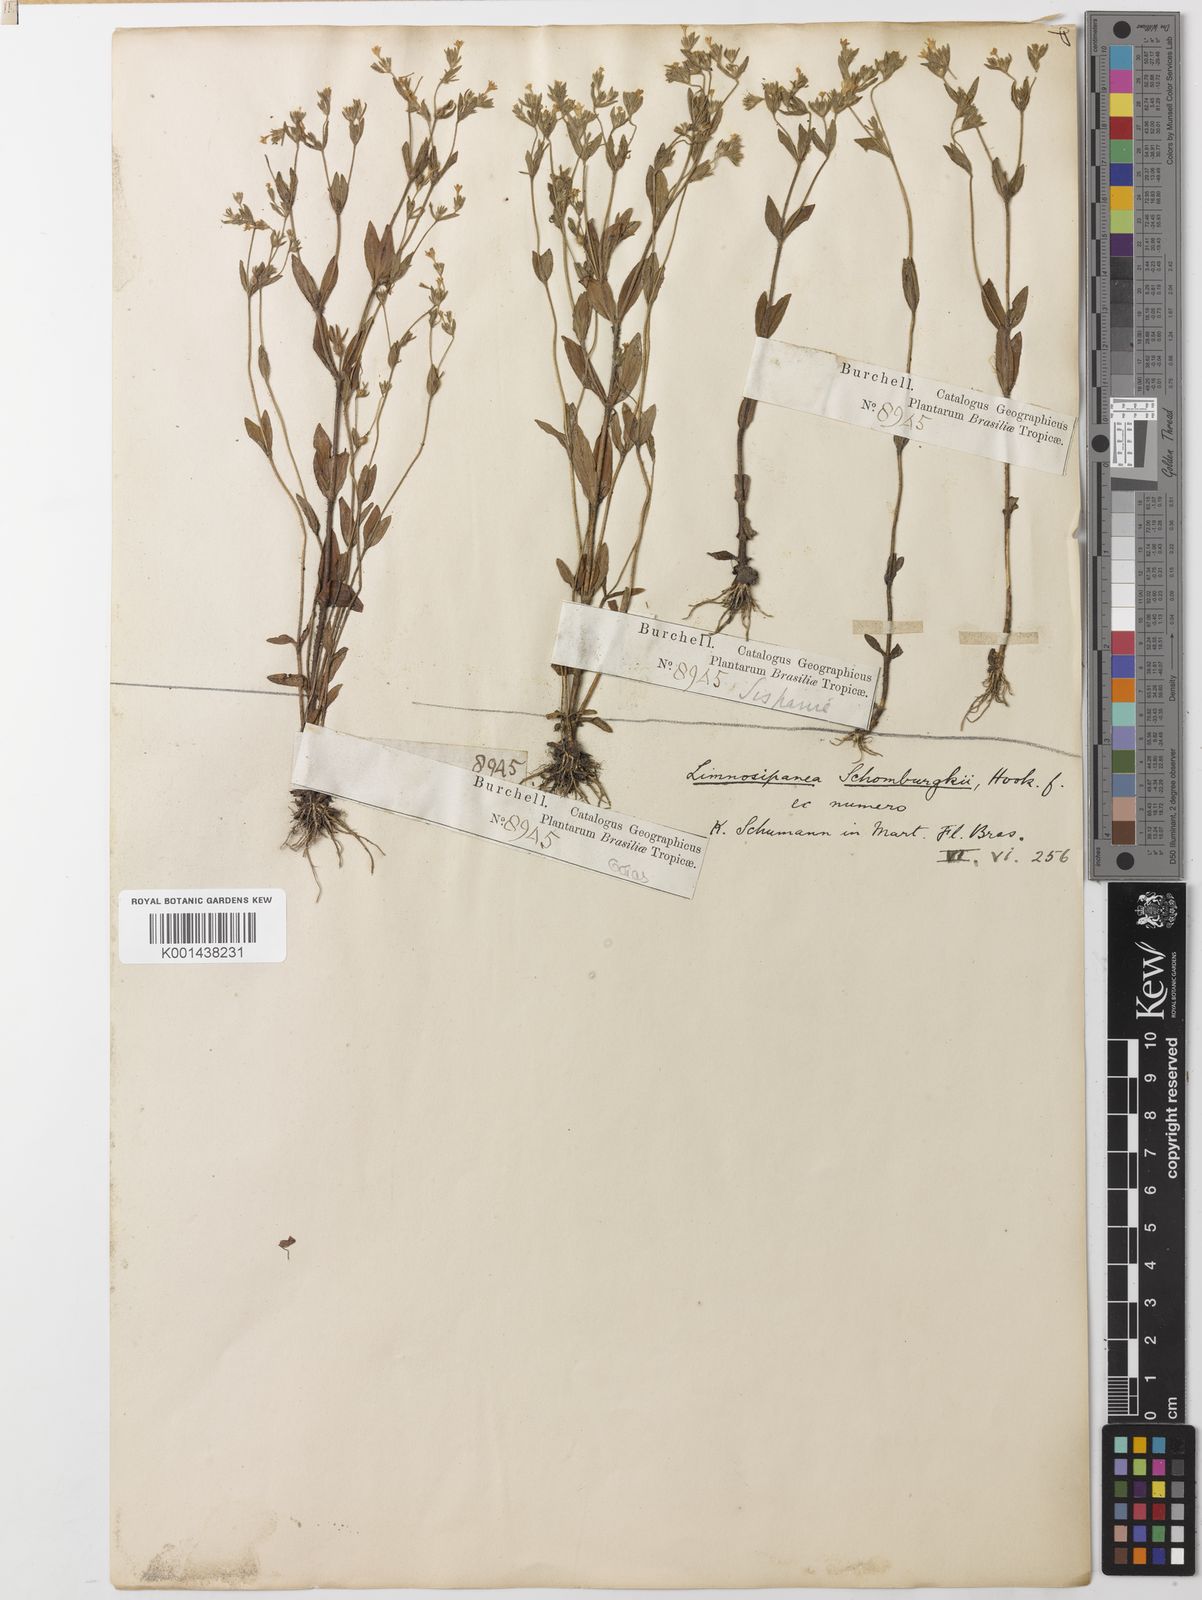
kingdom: Plantae
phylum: Tracheophyta
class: Magnoliopsida
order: Gentianales
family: Rubiaceae
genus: Limnosipanea
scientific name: Limnosipanea palustris
